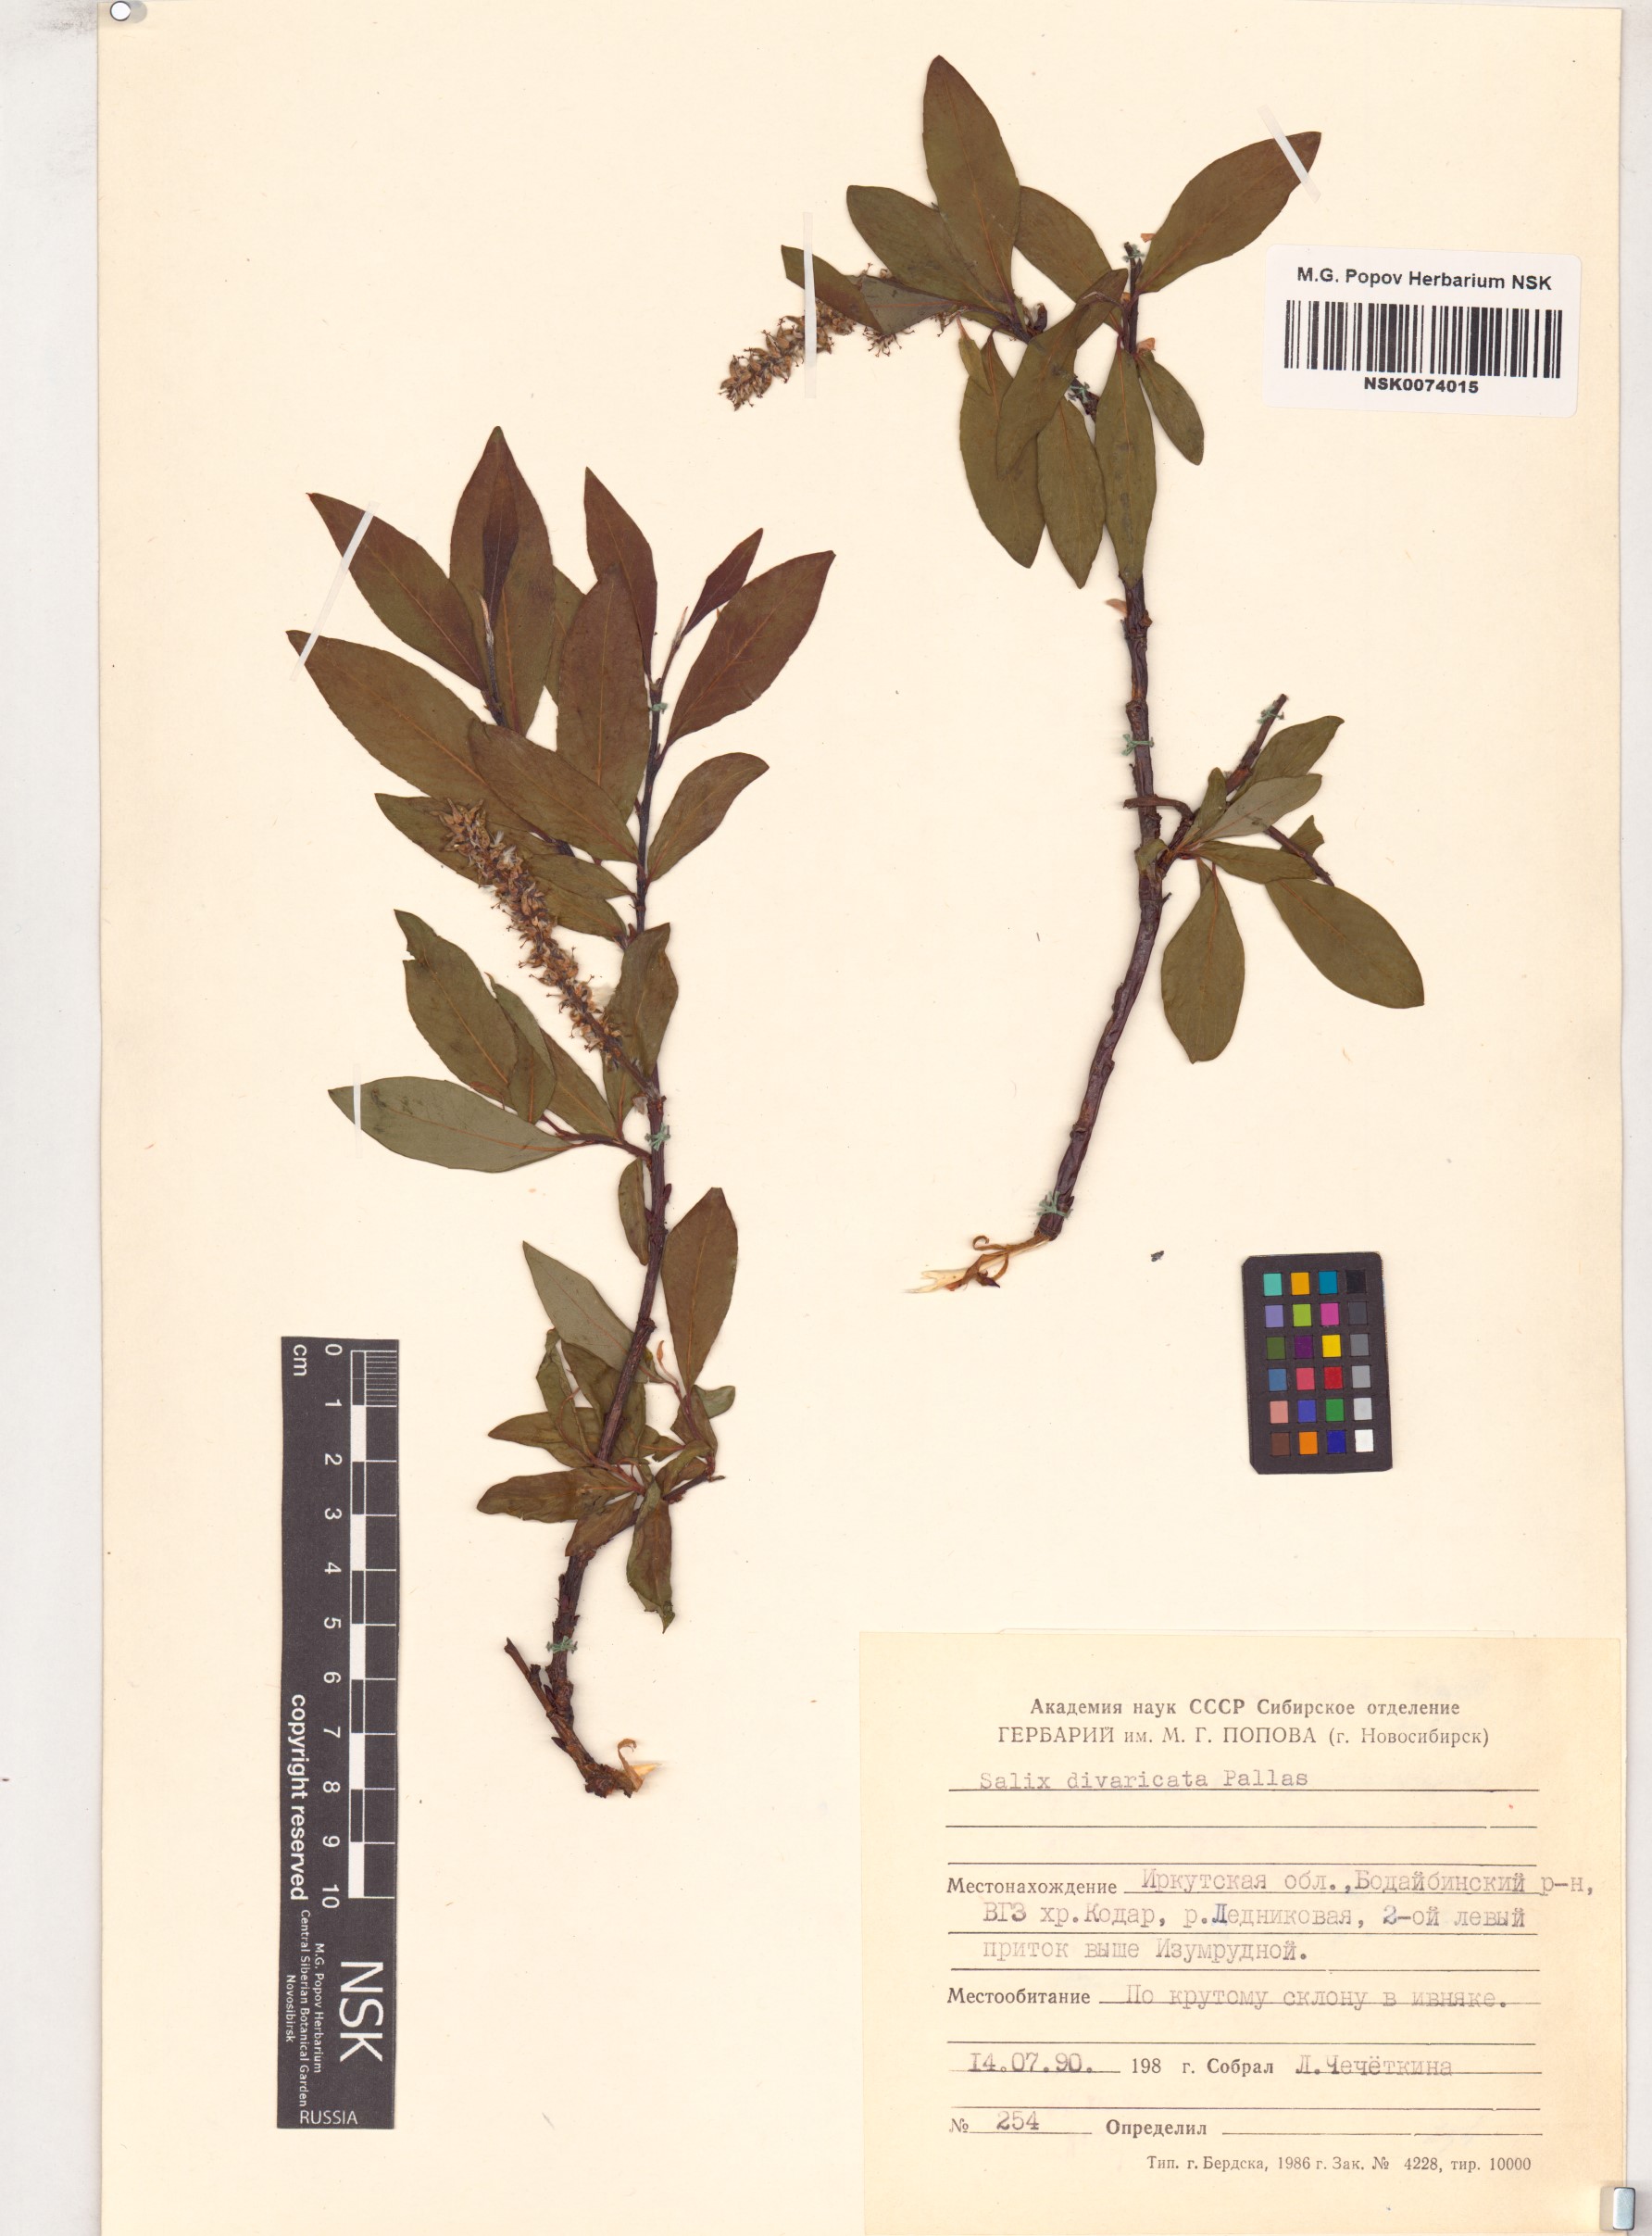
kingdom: Plantae
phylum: Tracheophyta
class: Magnoliopsida
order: Malpighiales
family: Salicaceae
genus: Salix
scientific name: Salix divaricata
